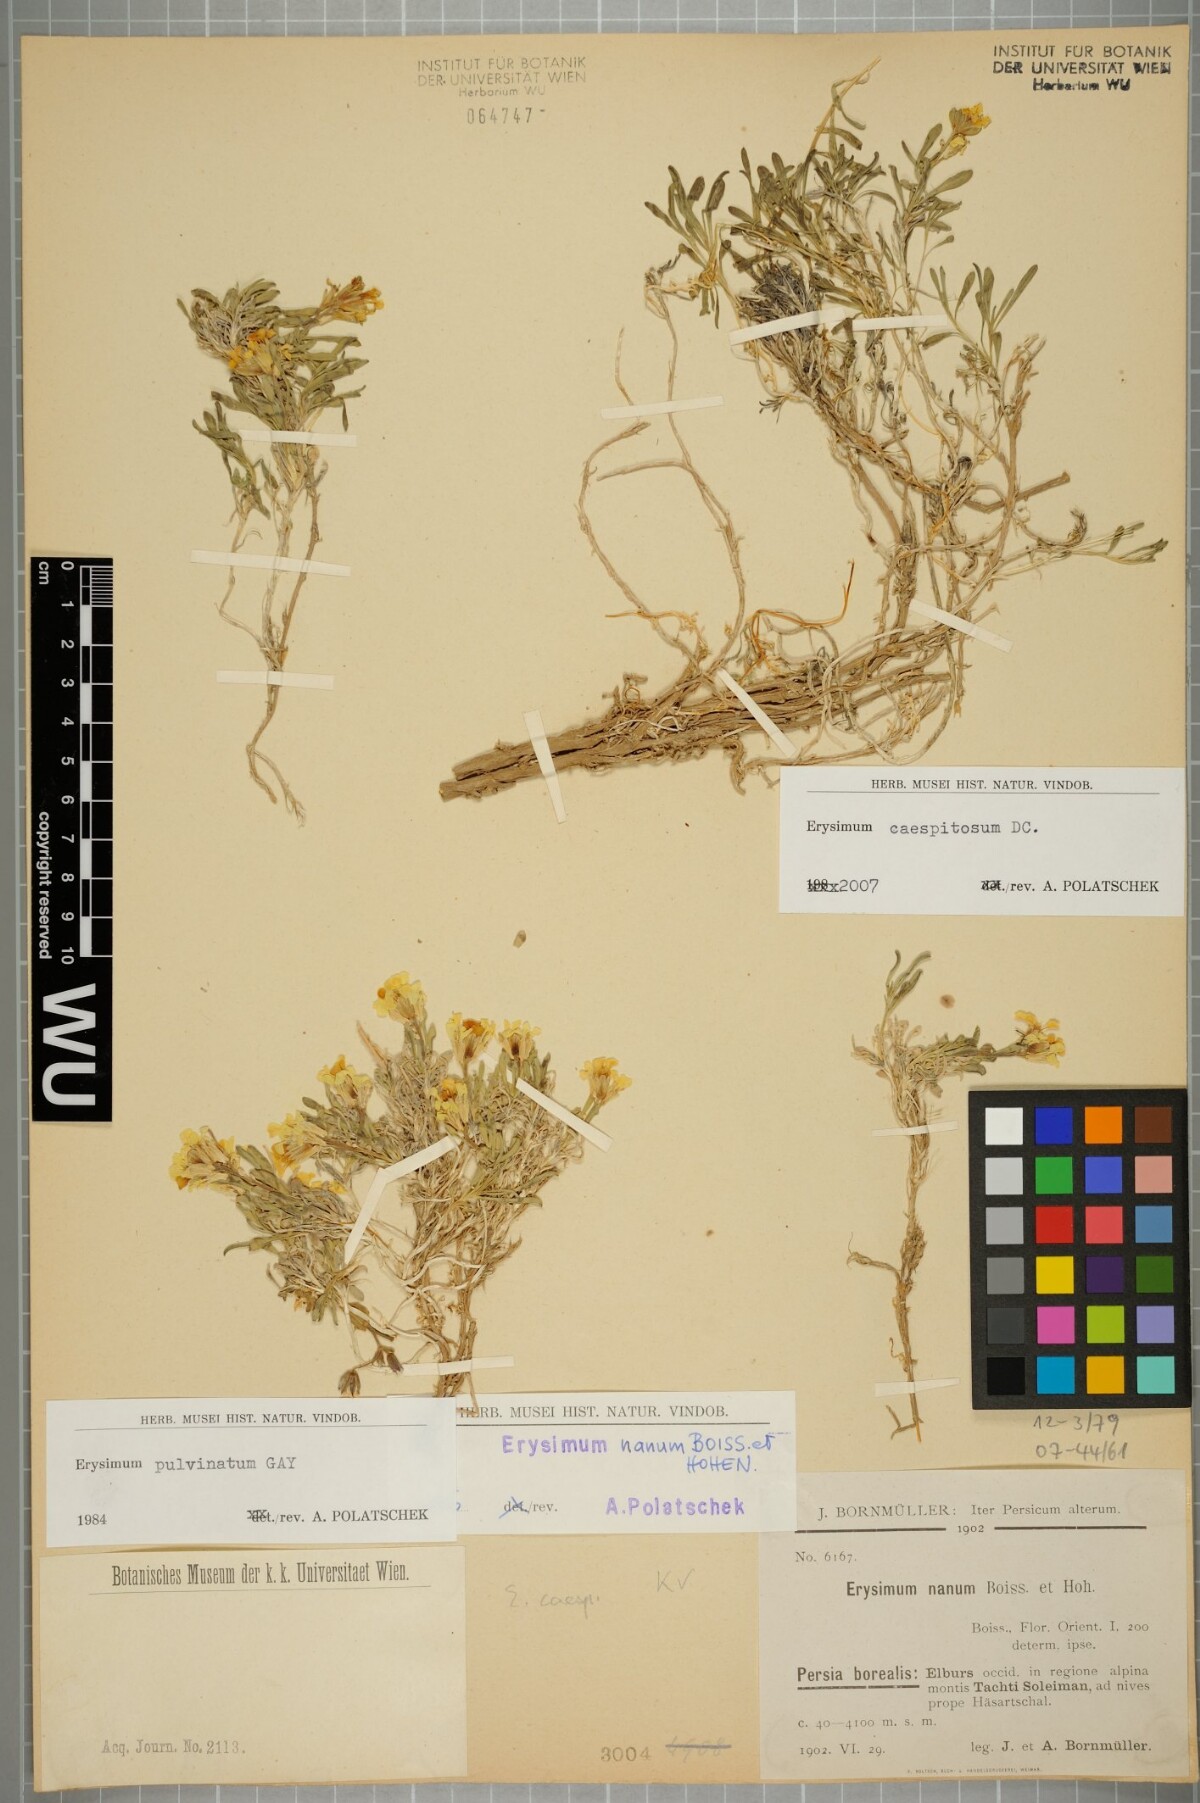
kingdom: Plantae
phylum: Tracheophyta
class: Magnoliopsida
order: Brassicales
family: Brassicaceae
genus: Erysimum
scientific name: Erysimum caespitosum
